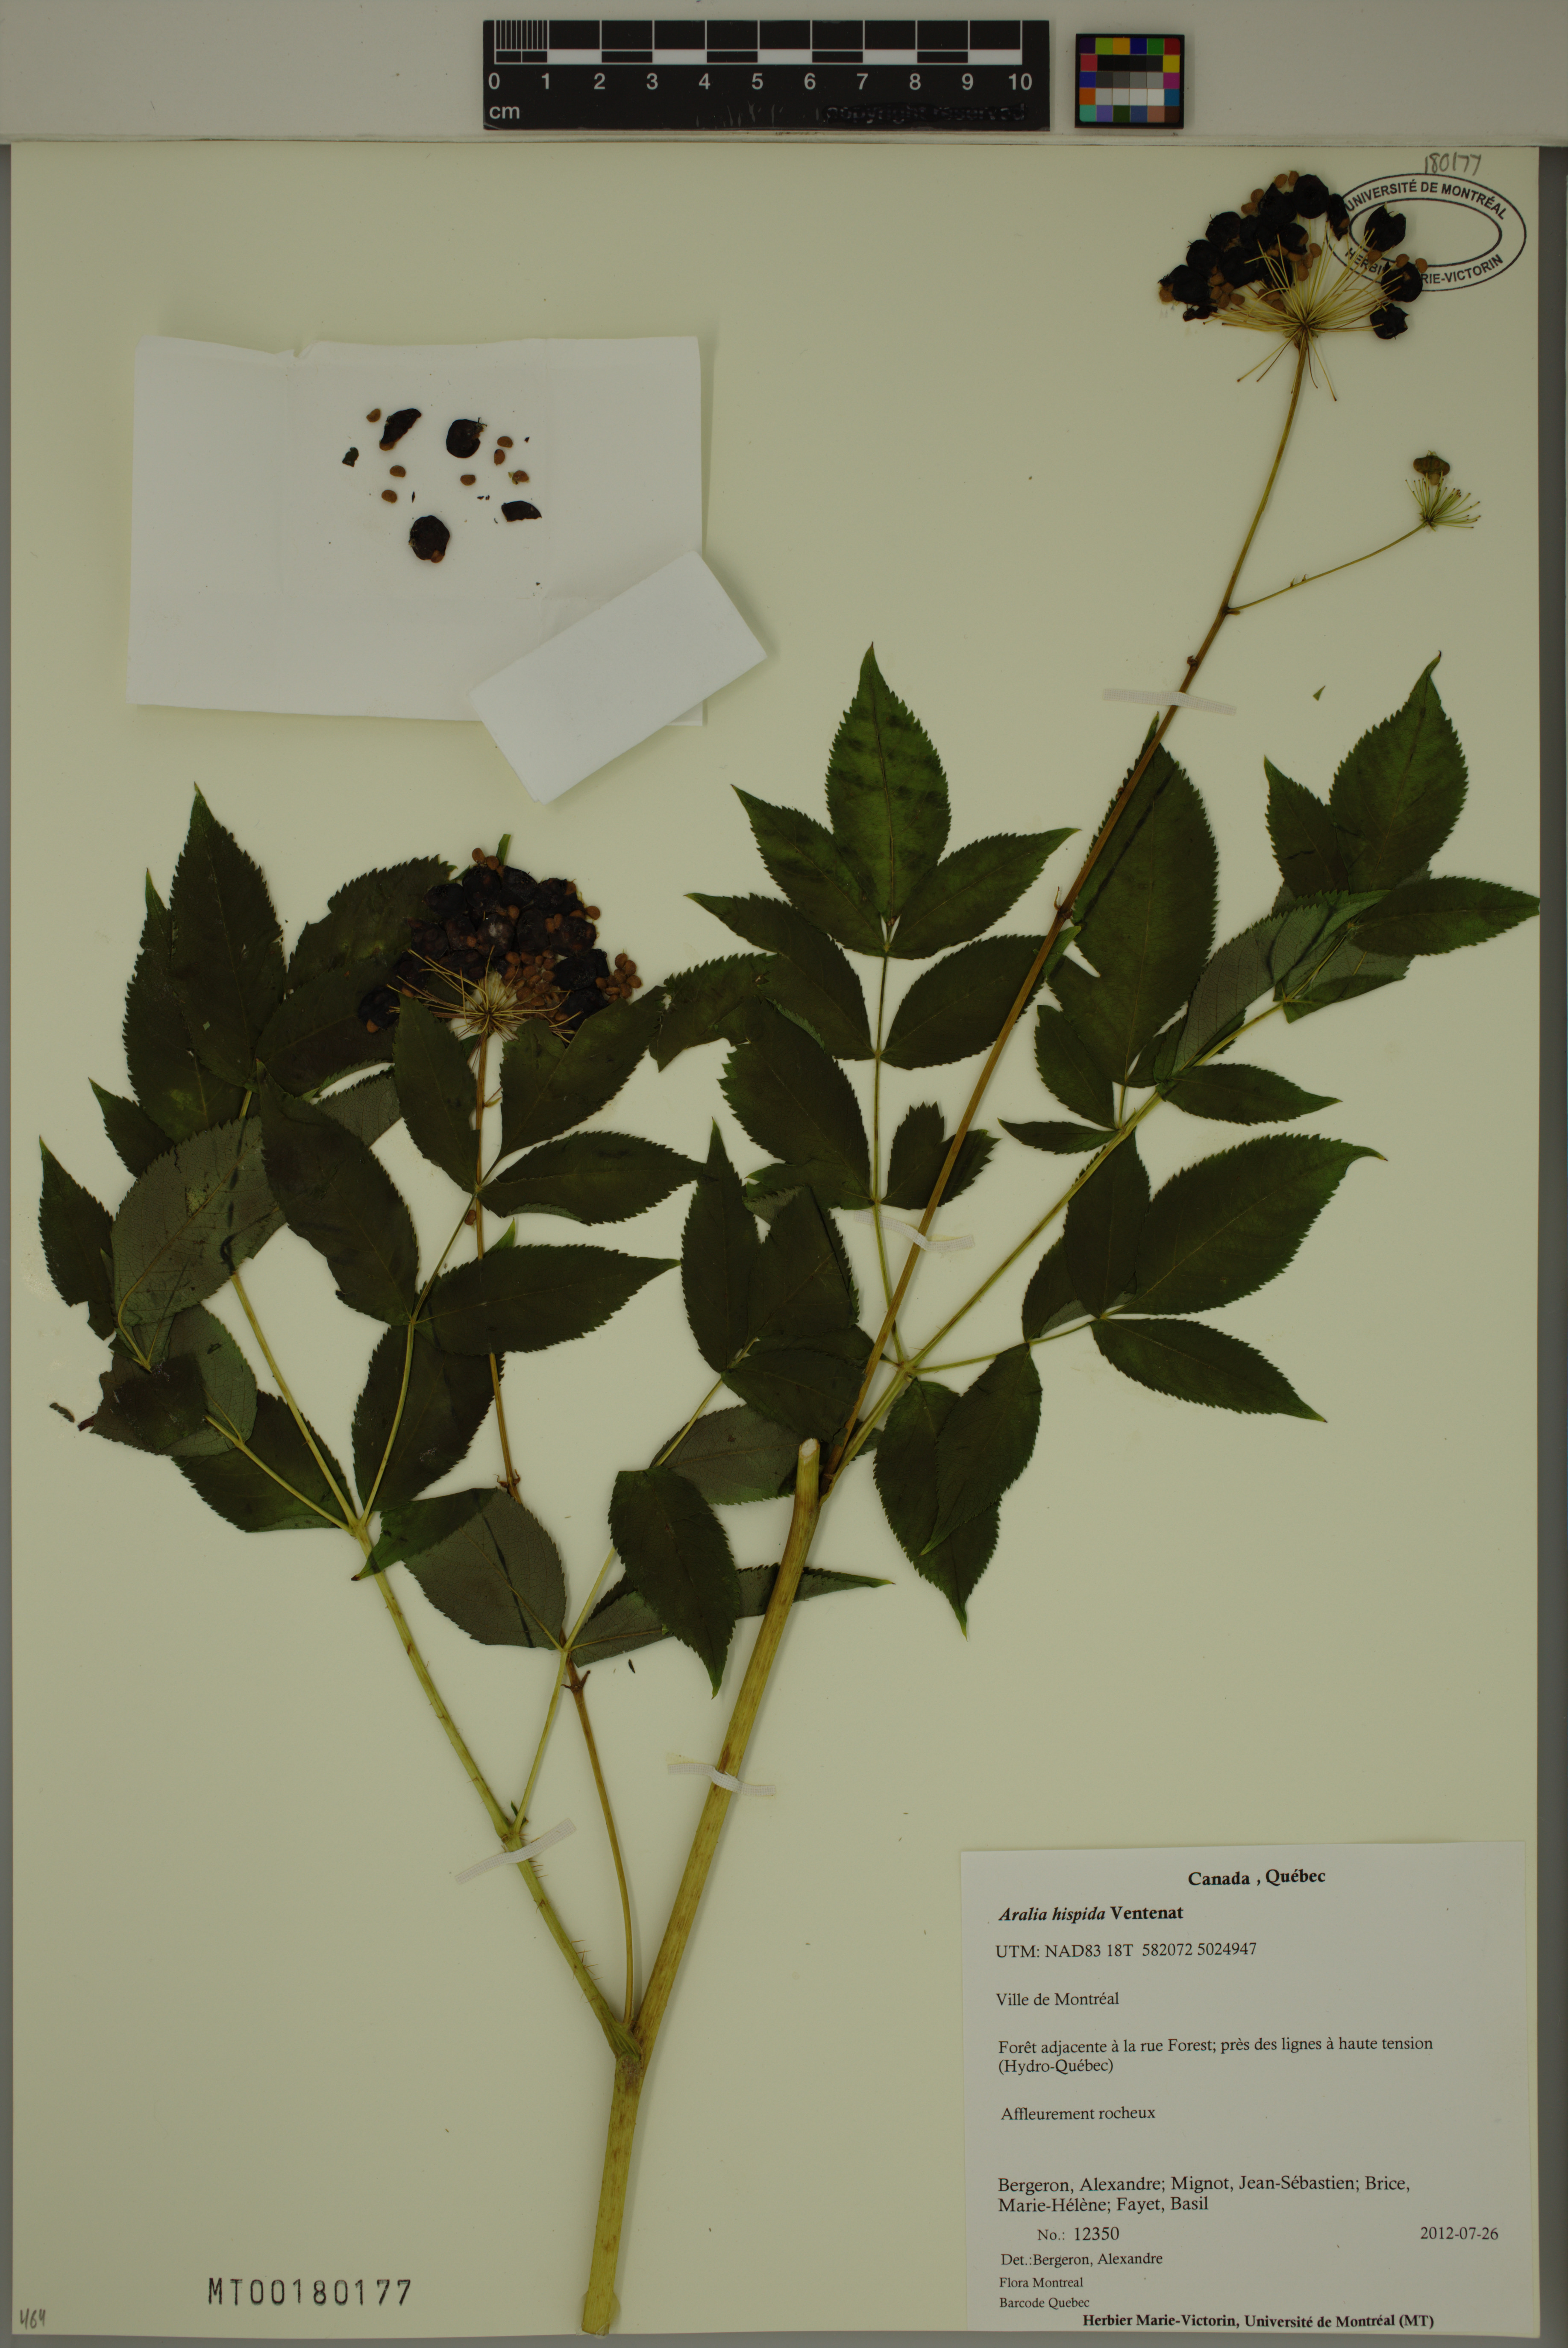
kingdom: Plantae
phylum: Tracheophyta
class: Magnoliopsida
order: Apiales
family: Araliaceae
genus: Aralia
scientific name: Aralia hispida
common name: Bristly sarsaparilla
